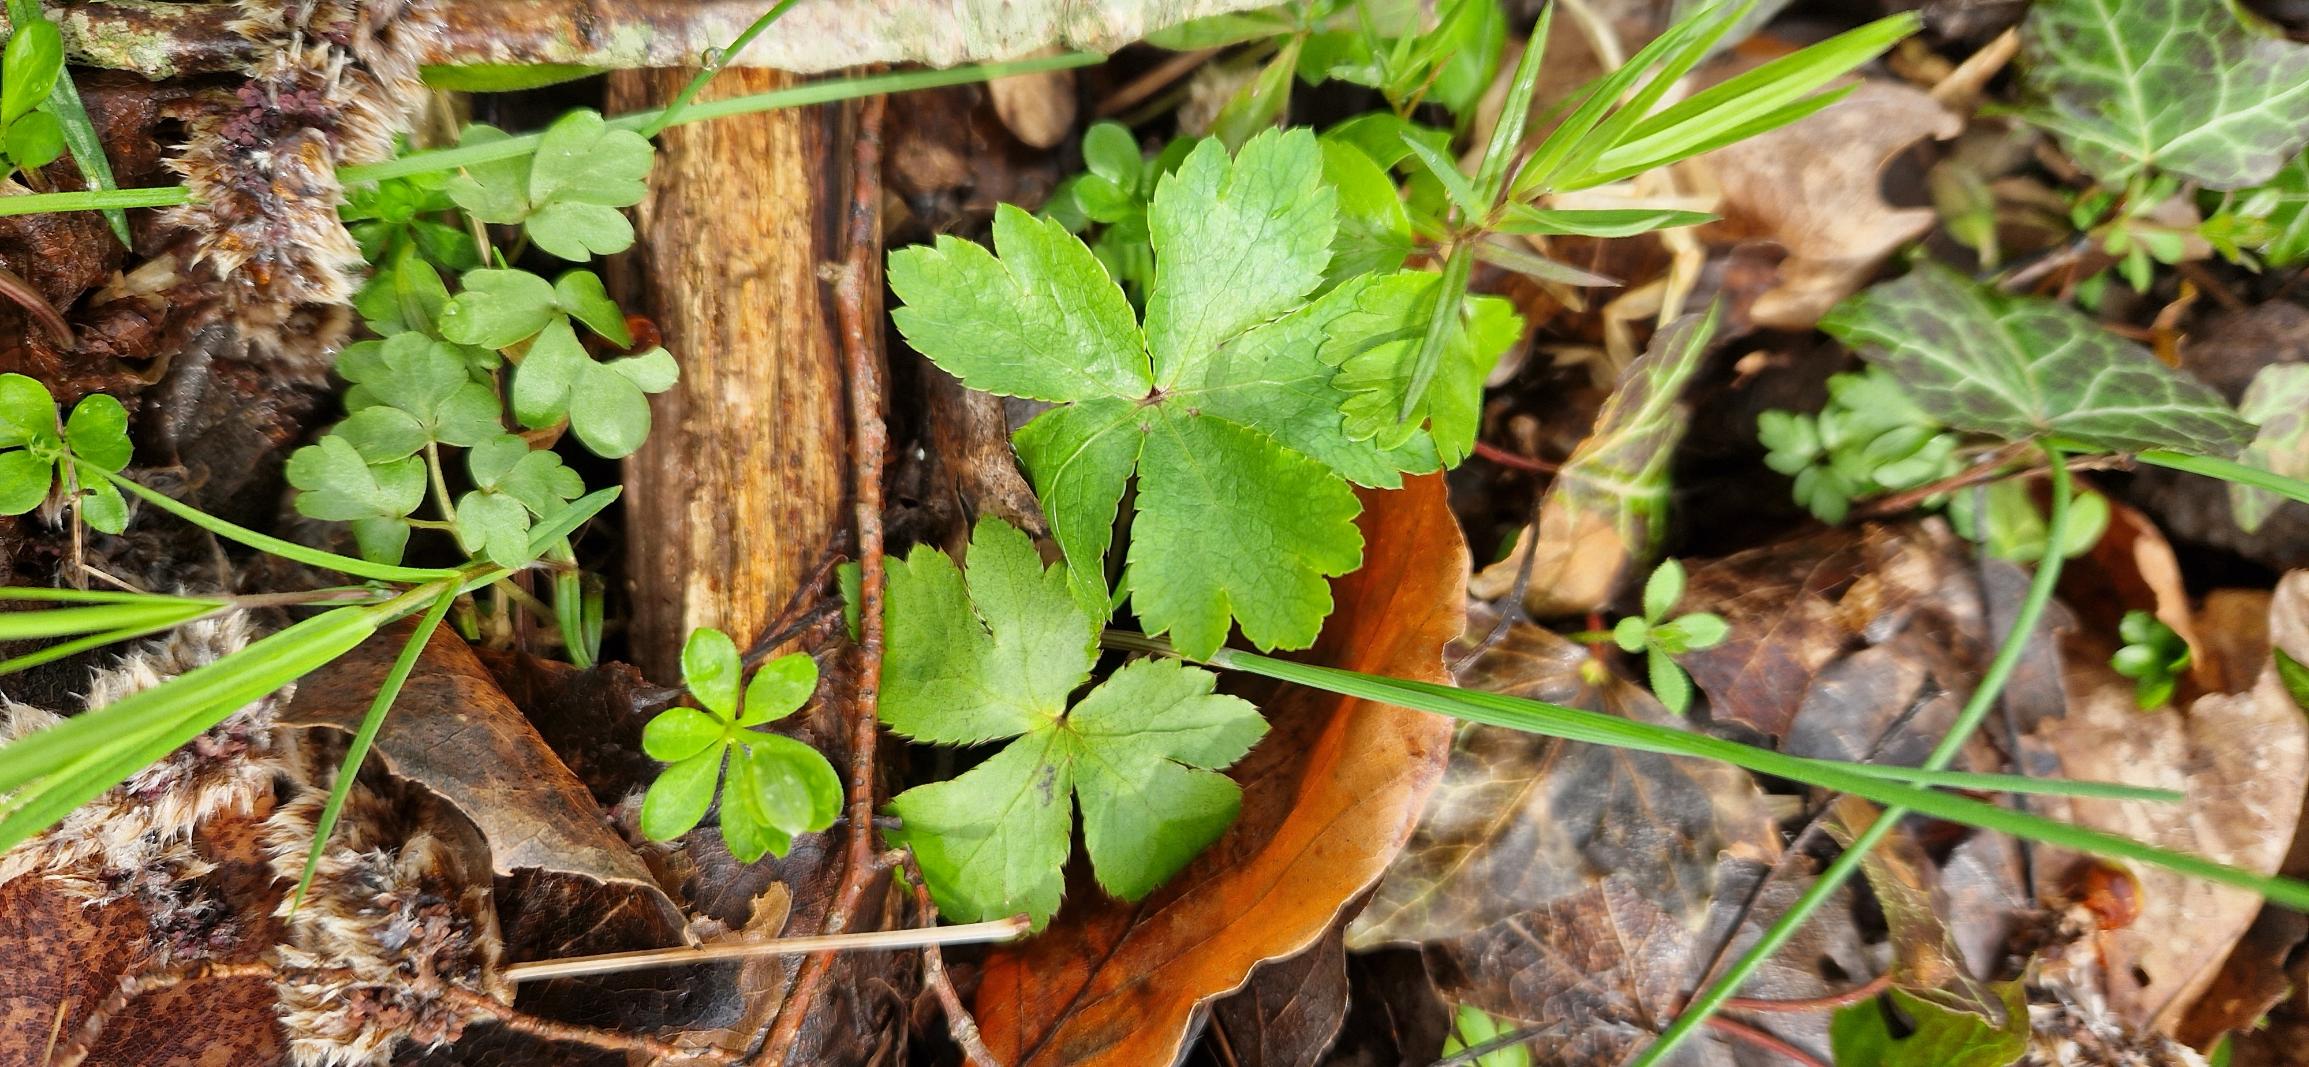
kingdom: Plantae
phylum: Tracheophyta
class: Magnoliopsida
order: Apiales
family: Apiaceae
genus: Sanicula
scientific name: Sanicula europaea
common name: Sanikel
